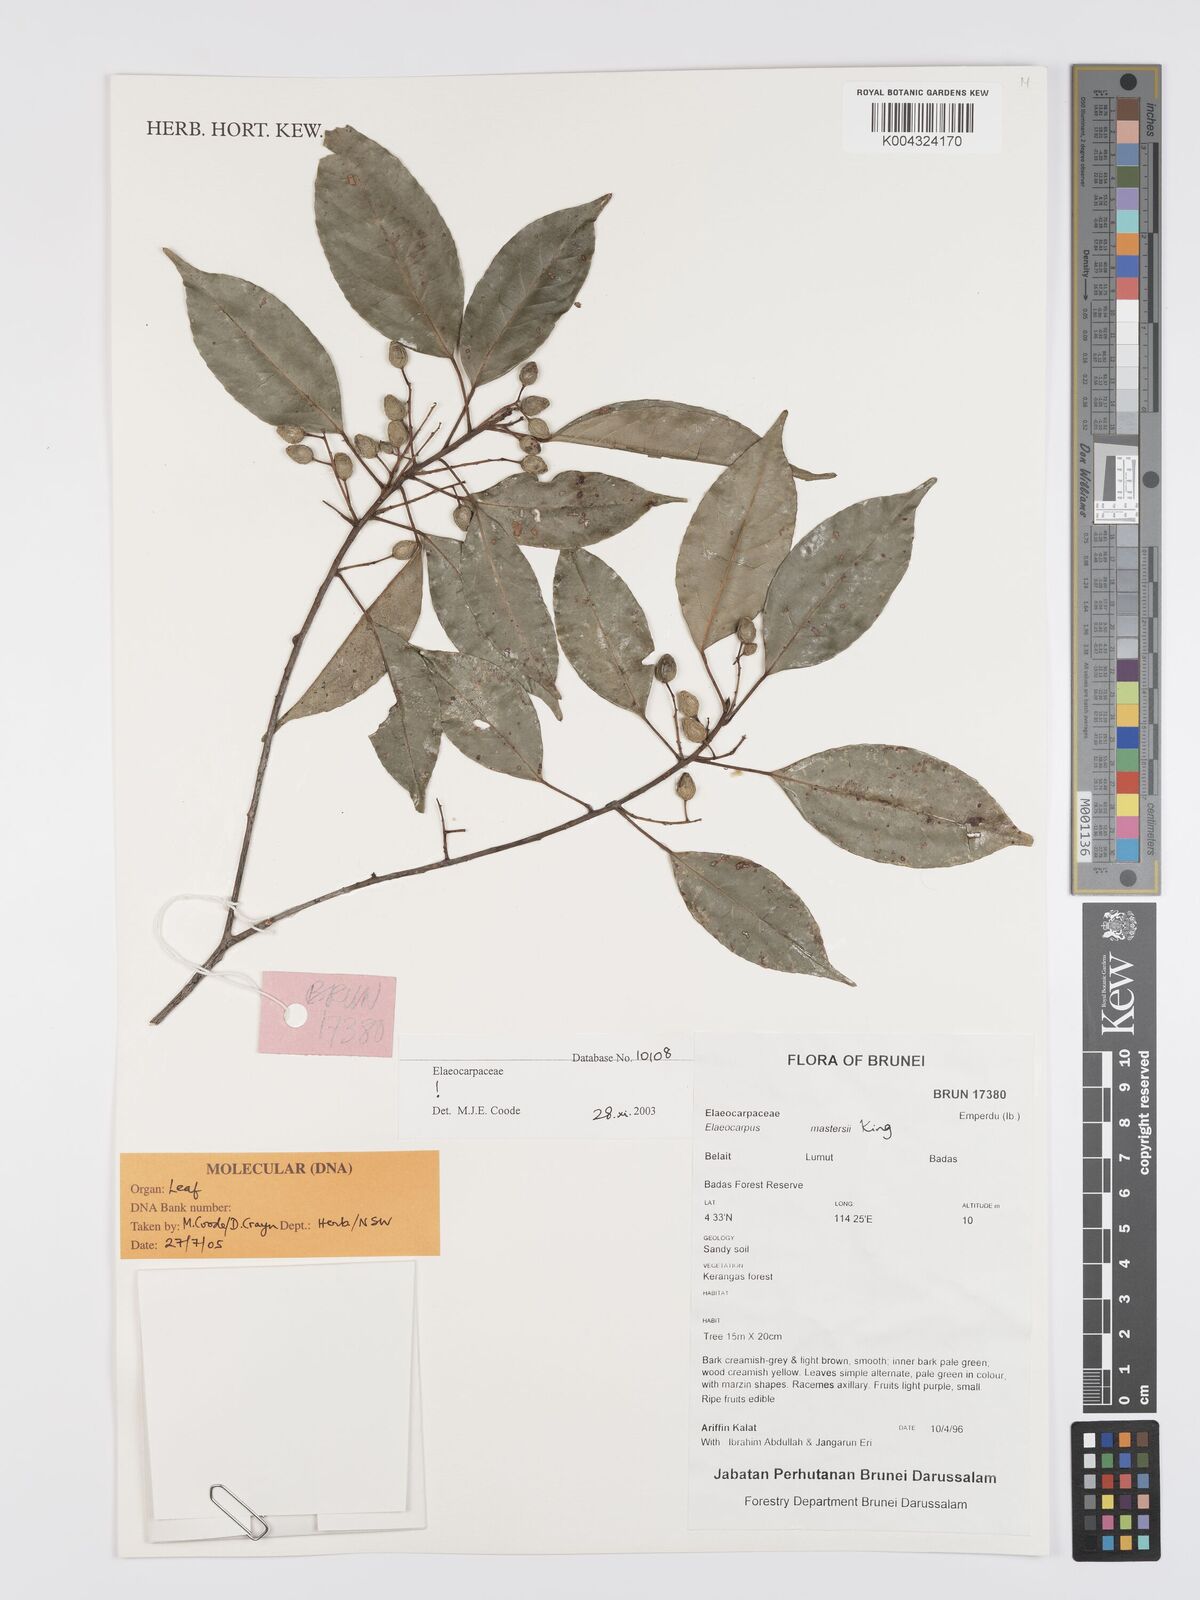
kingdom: Plantae
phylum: Tracheophyta
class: Magnoliopsida
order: Oxalidales
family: Elaeocarpaceae
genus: Elaeocarpus
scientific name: Elaeocarpus mastersii
